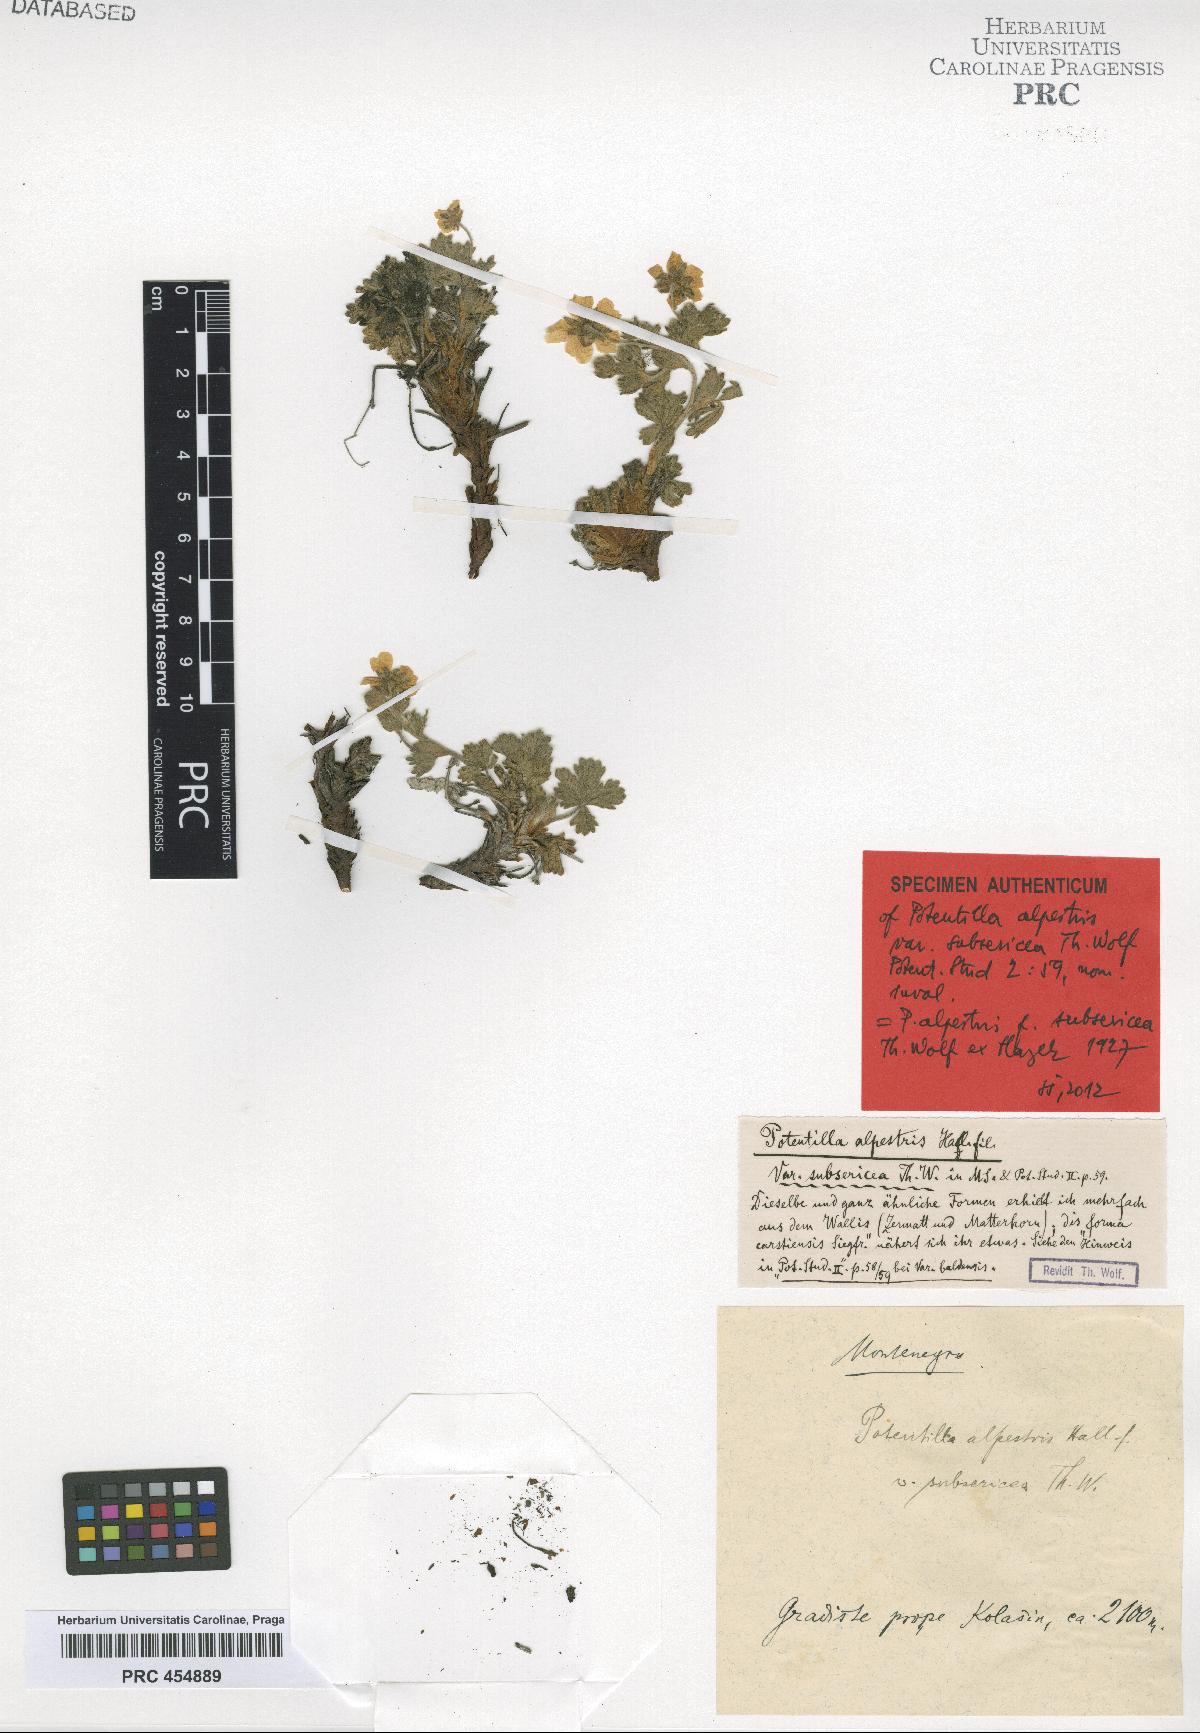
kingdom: Plantae
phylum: Tracheophyta
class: Magnoliopsida
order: Rosales
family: Rosaceae
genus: Potentilla
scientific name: Potentilla crantzii
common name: Alpine cinquefoil
